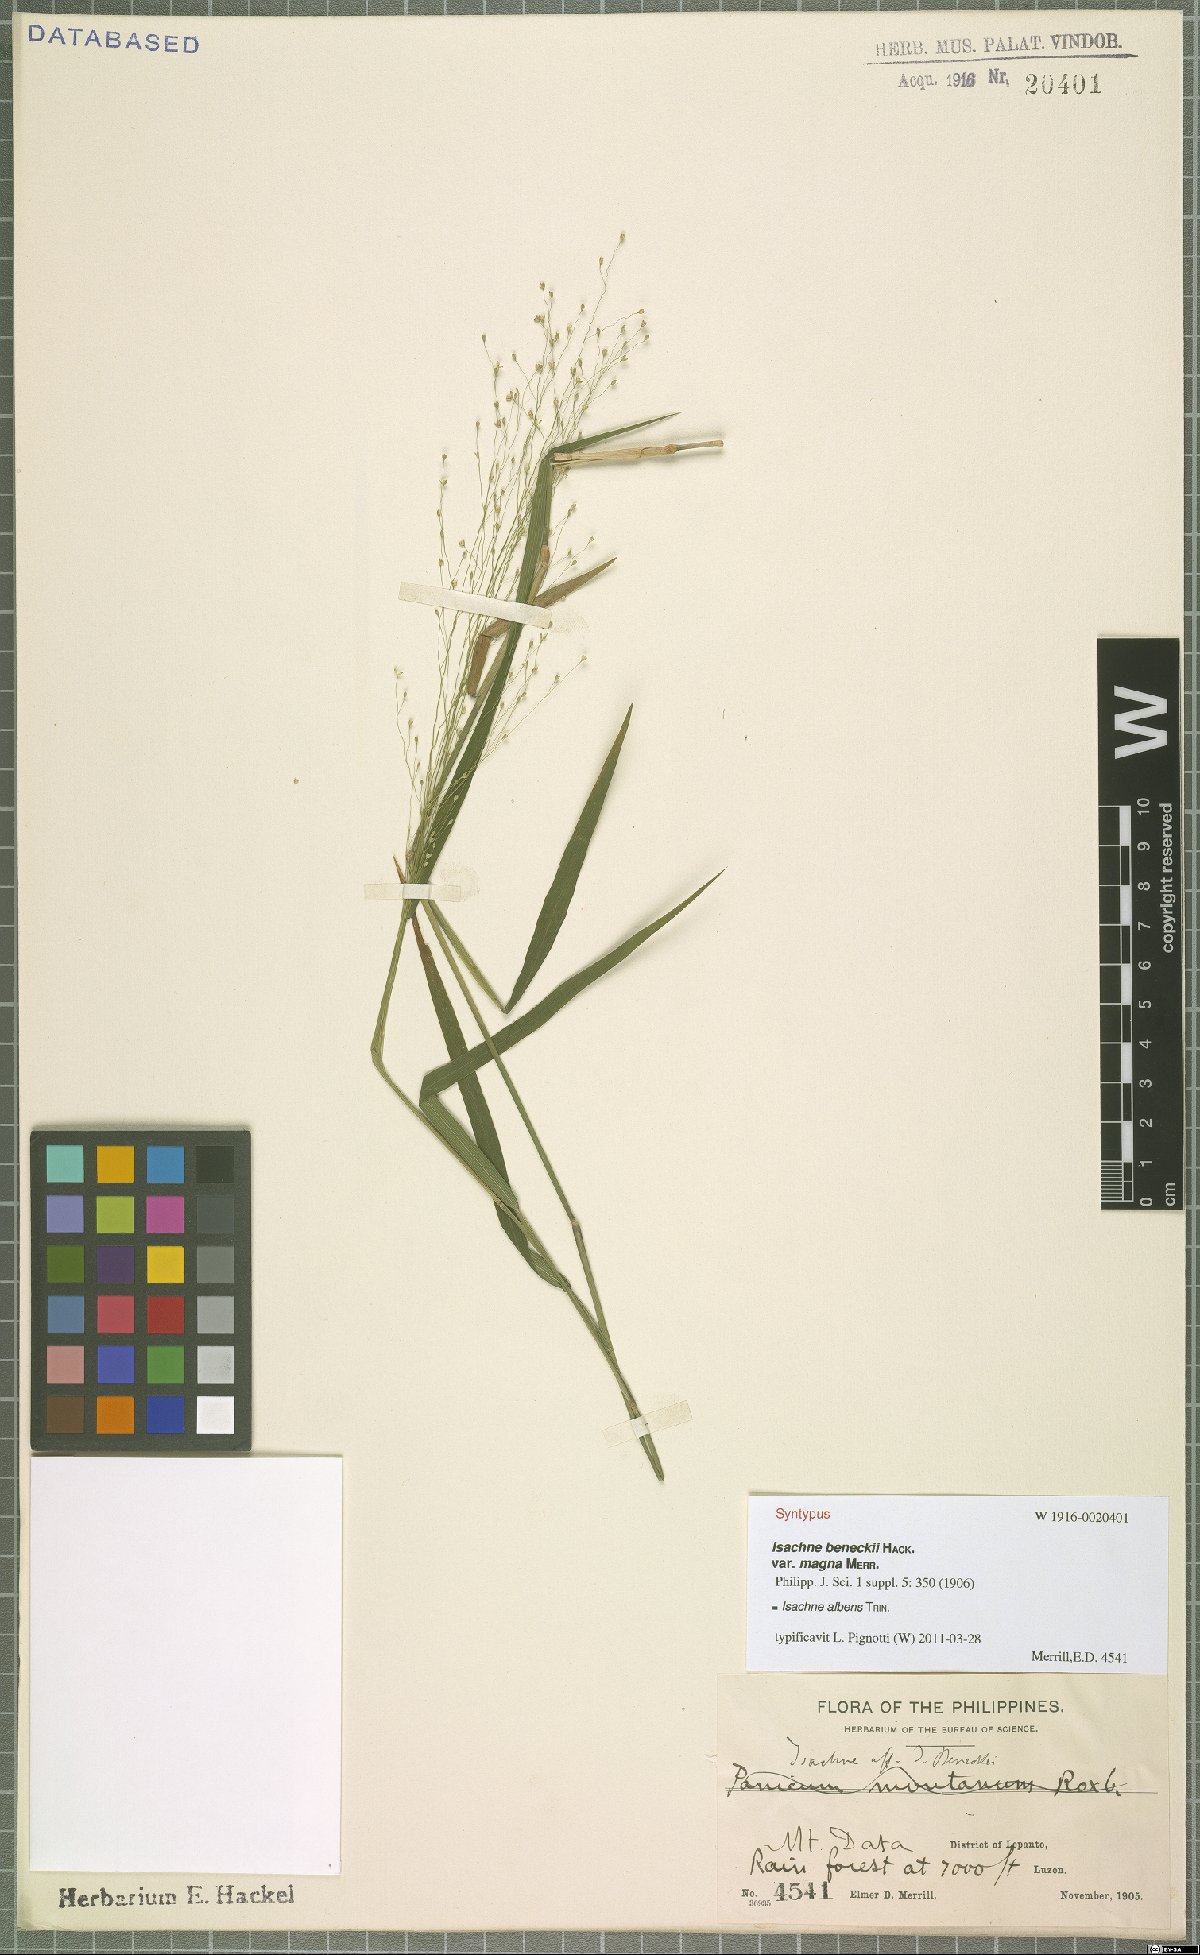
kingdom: Plantae
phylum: Tracheophyta
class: Liliopsida
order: Poales
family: Poaceae
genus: Isachne
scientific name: Isachne albens
